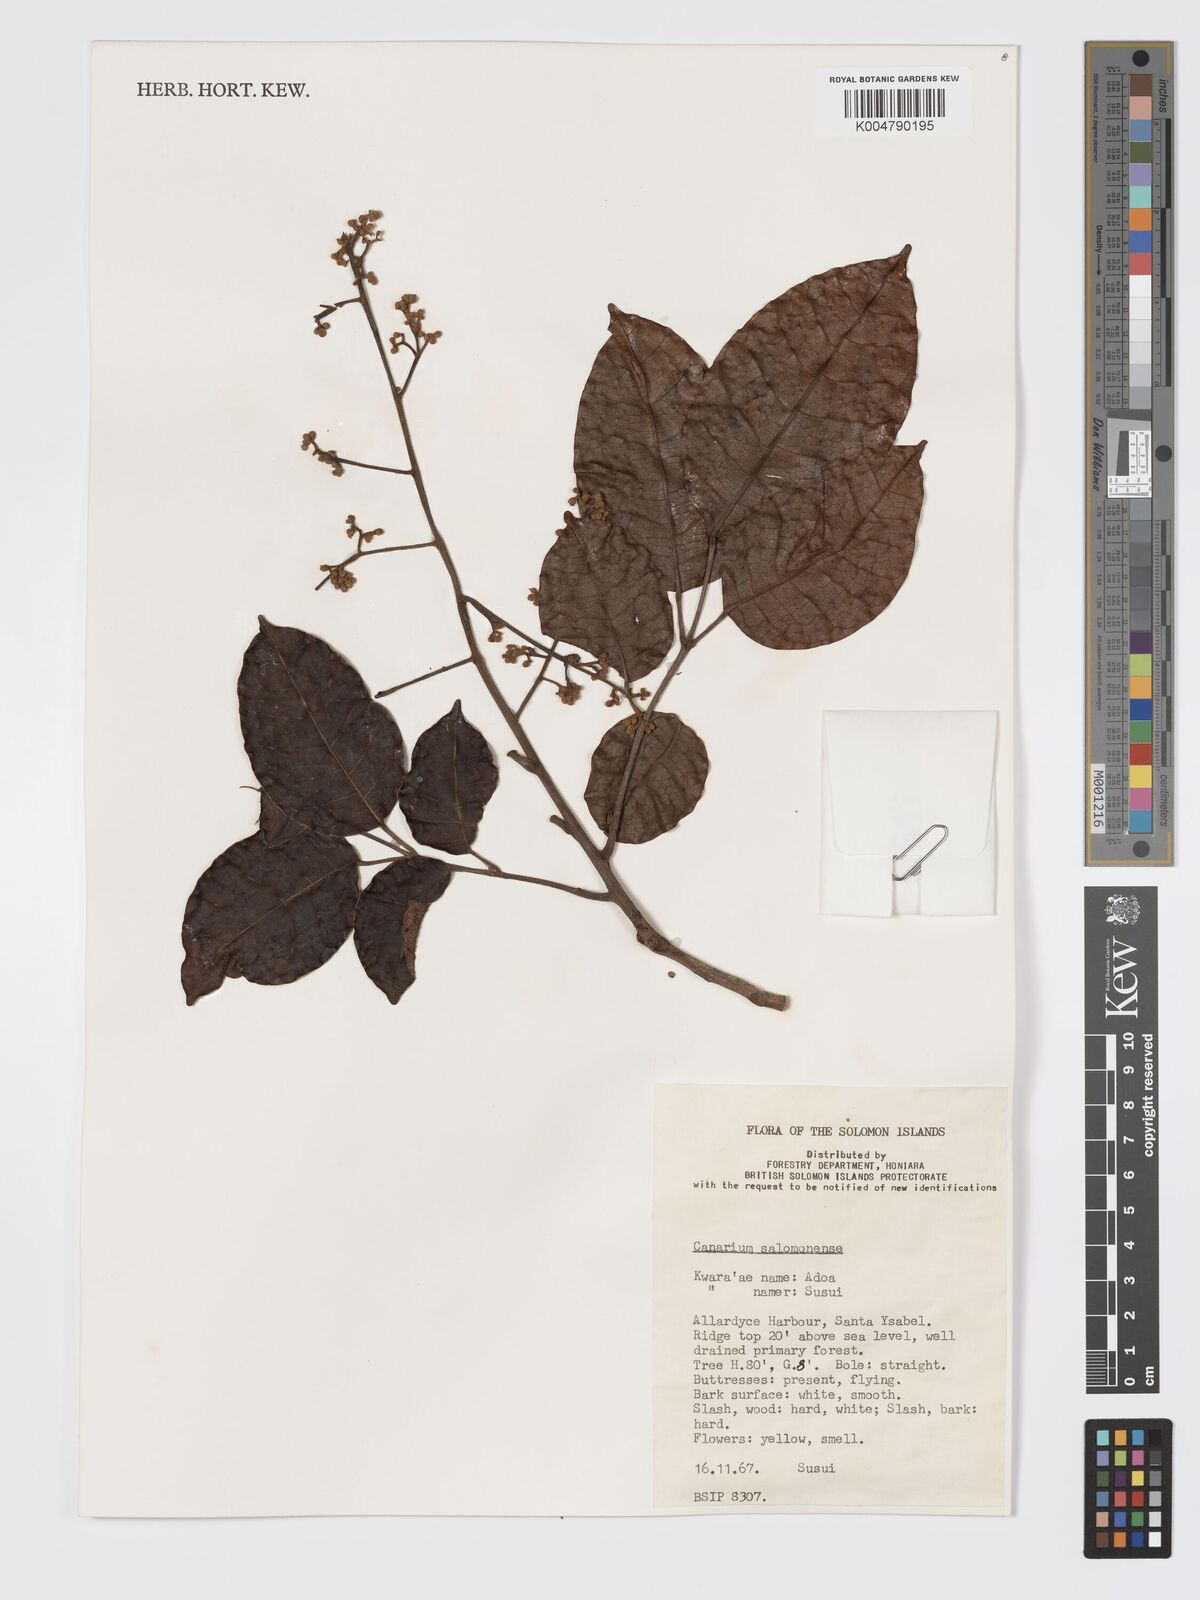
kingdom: Plantae
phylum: Tracheophyta
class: Magnoliopsida
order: Sapindales
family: Burseraceae
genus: Canarium
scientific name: Canarium salomonense
